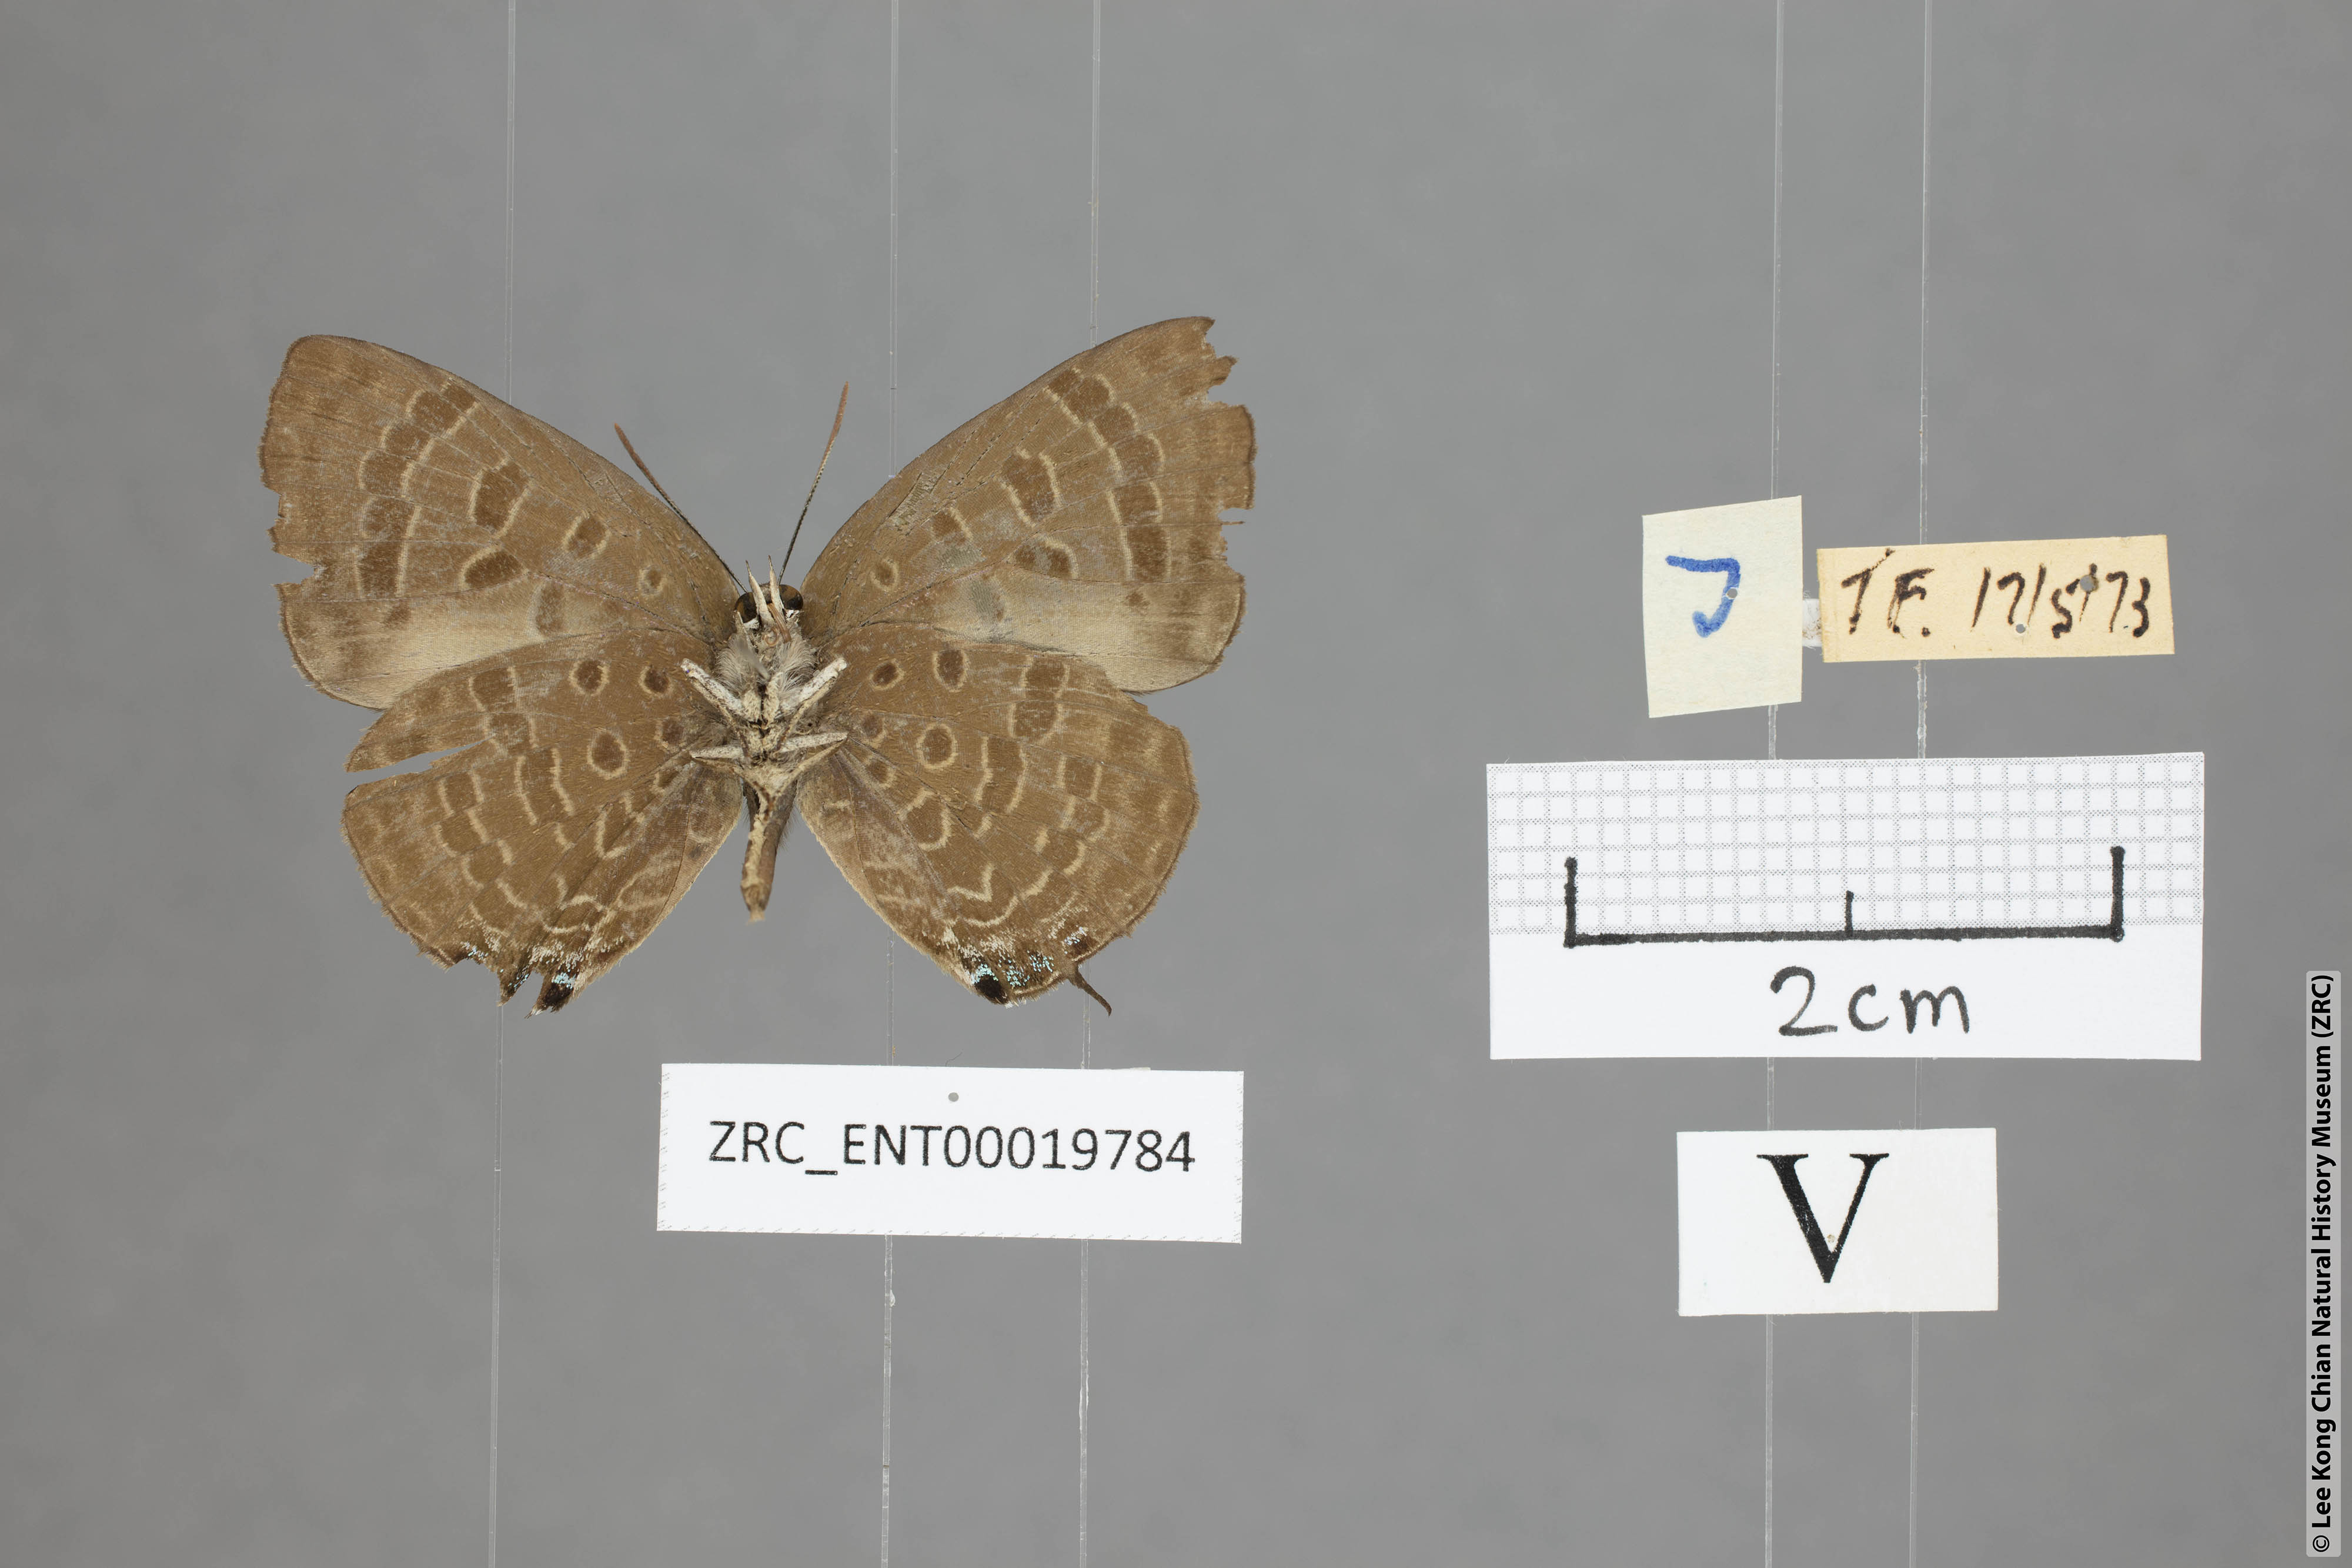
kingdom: Animalia
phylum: Arthropoda
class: Insecta
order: Lepidoptera
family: Lycaenidae
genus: Arhopala
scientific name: Arhopala phaenops
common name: Sumatran oakblue
